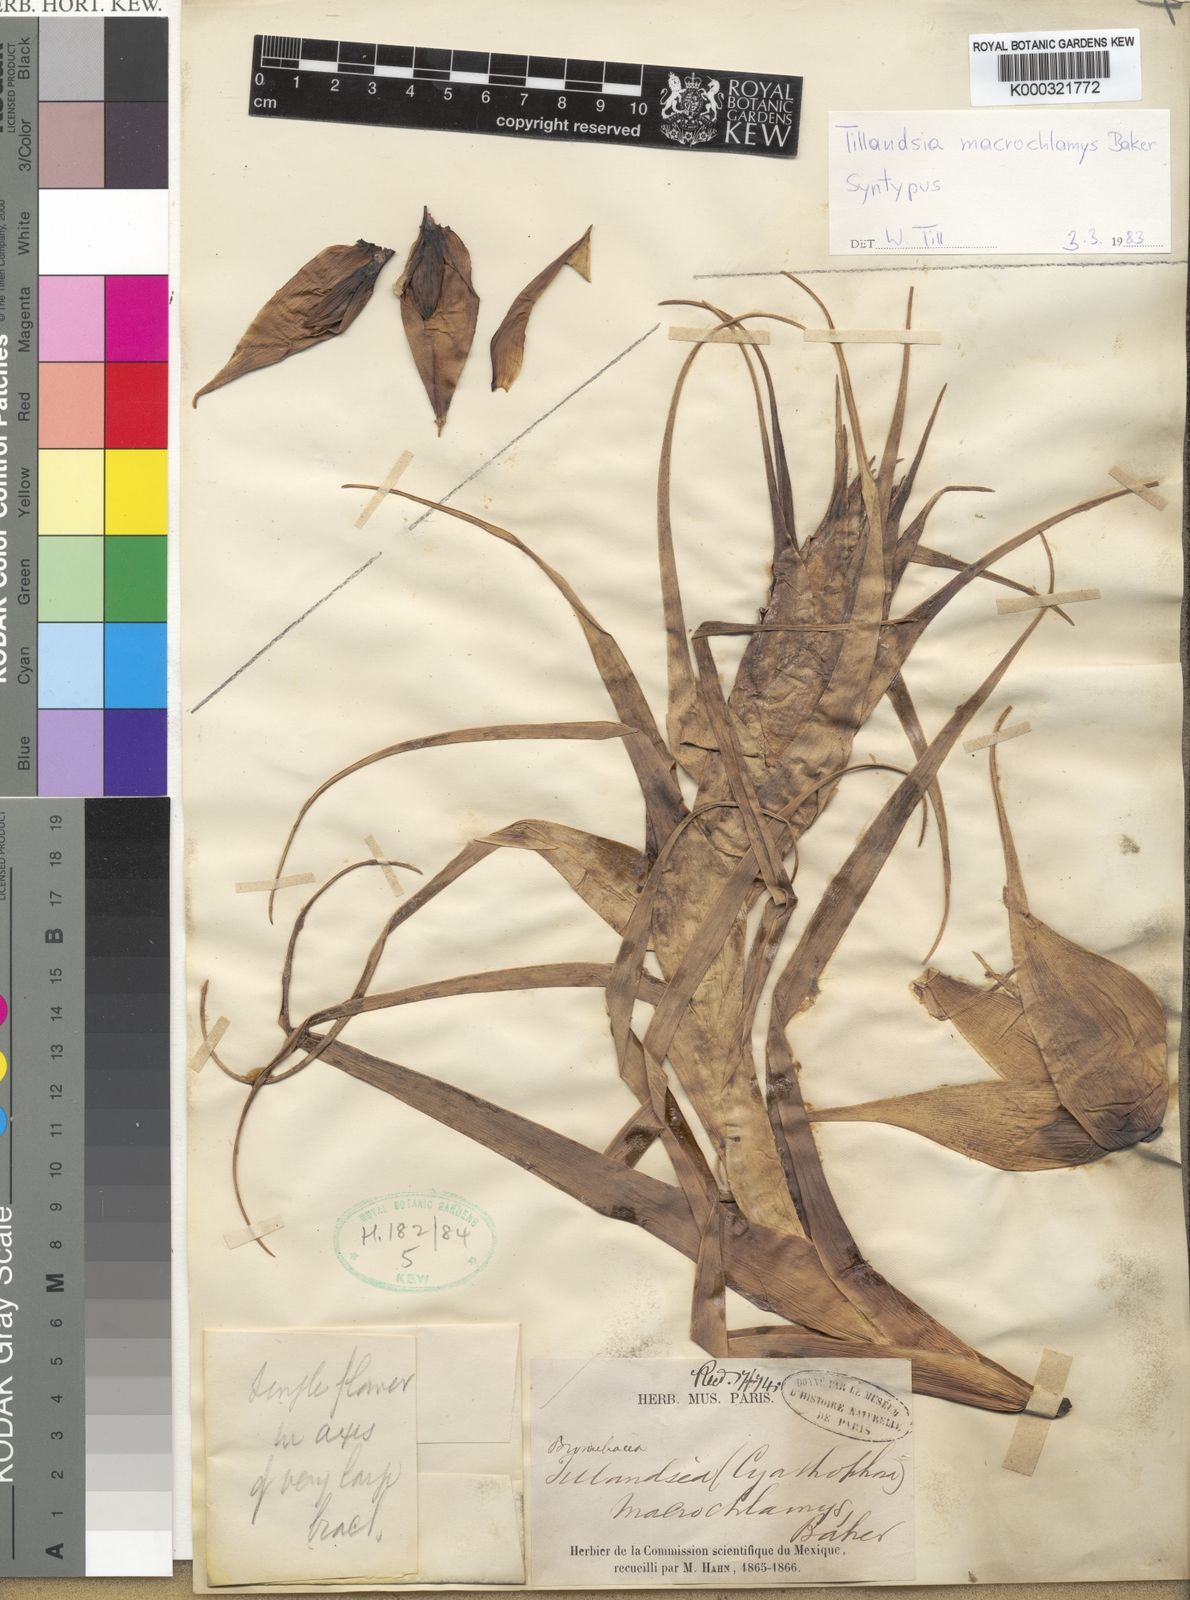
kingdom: Plantae
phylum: Tracheophyta
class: Liliopsida
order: Poales
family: Bromeliaceae
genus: Tillandsia
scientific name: Tillandsia macrochlamys
